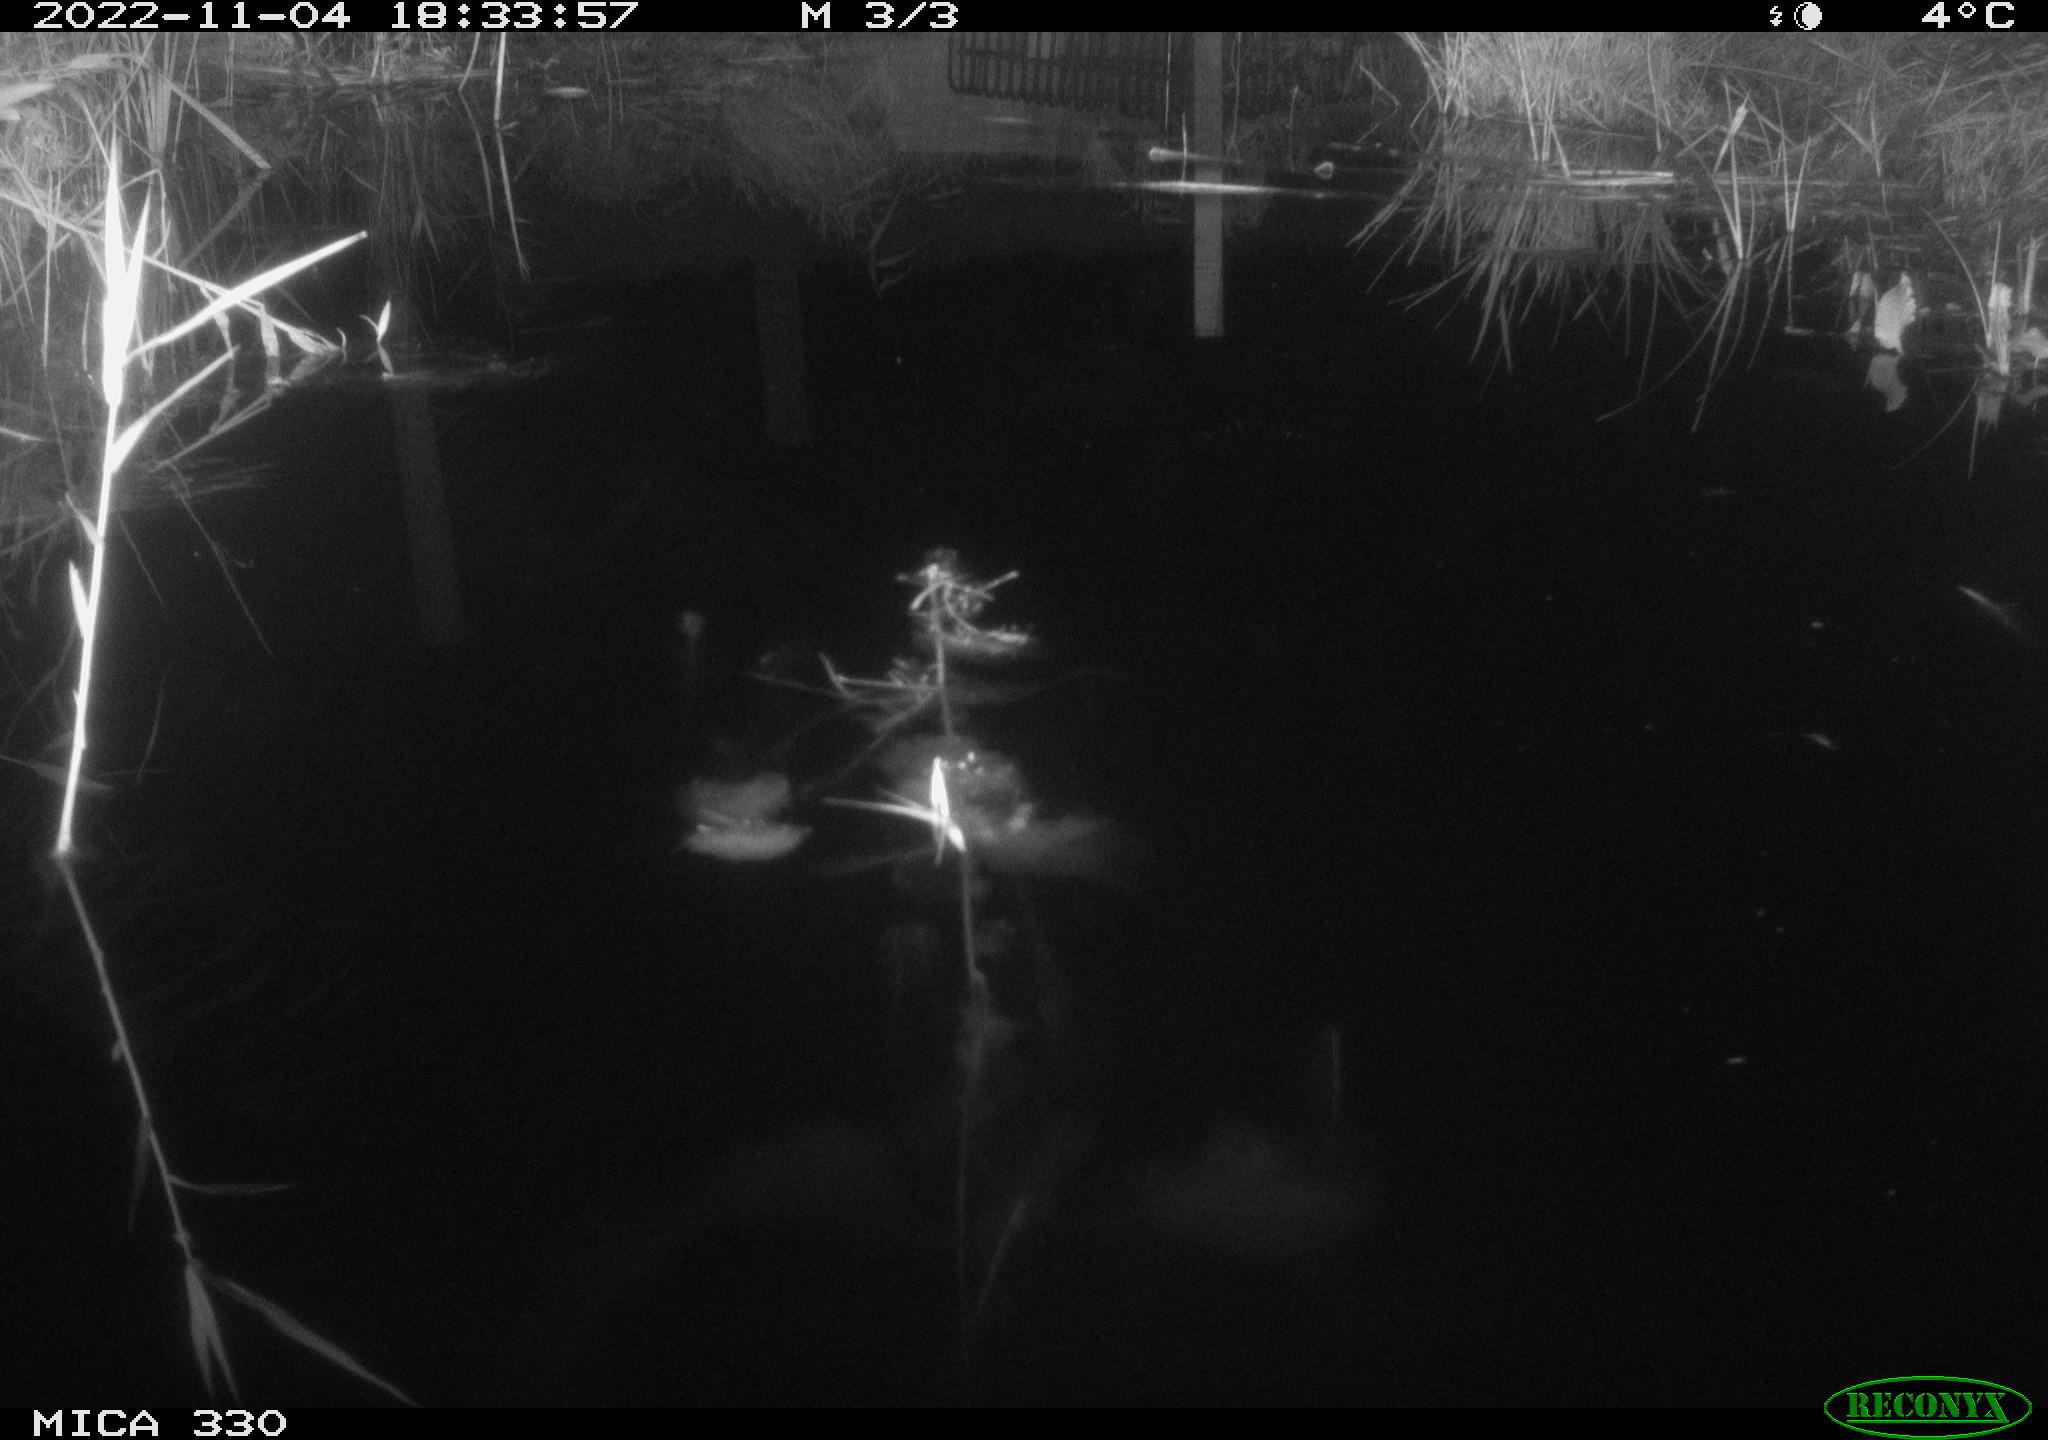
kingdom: Animalia
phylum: Chordata
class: Aves
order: Gruiformes
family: Rallidae
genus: Gallinula
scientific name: Gallinula chloropus
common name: Common moorhen
